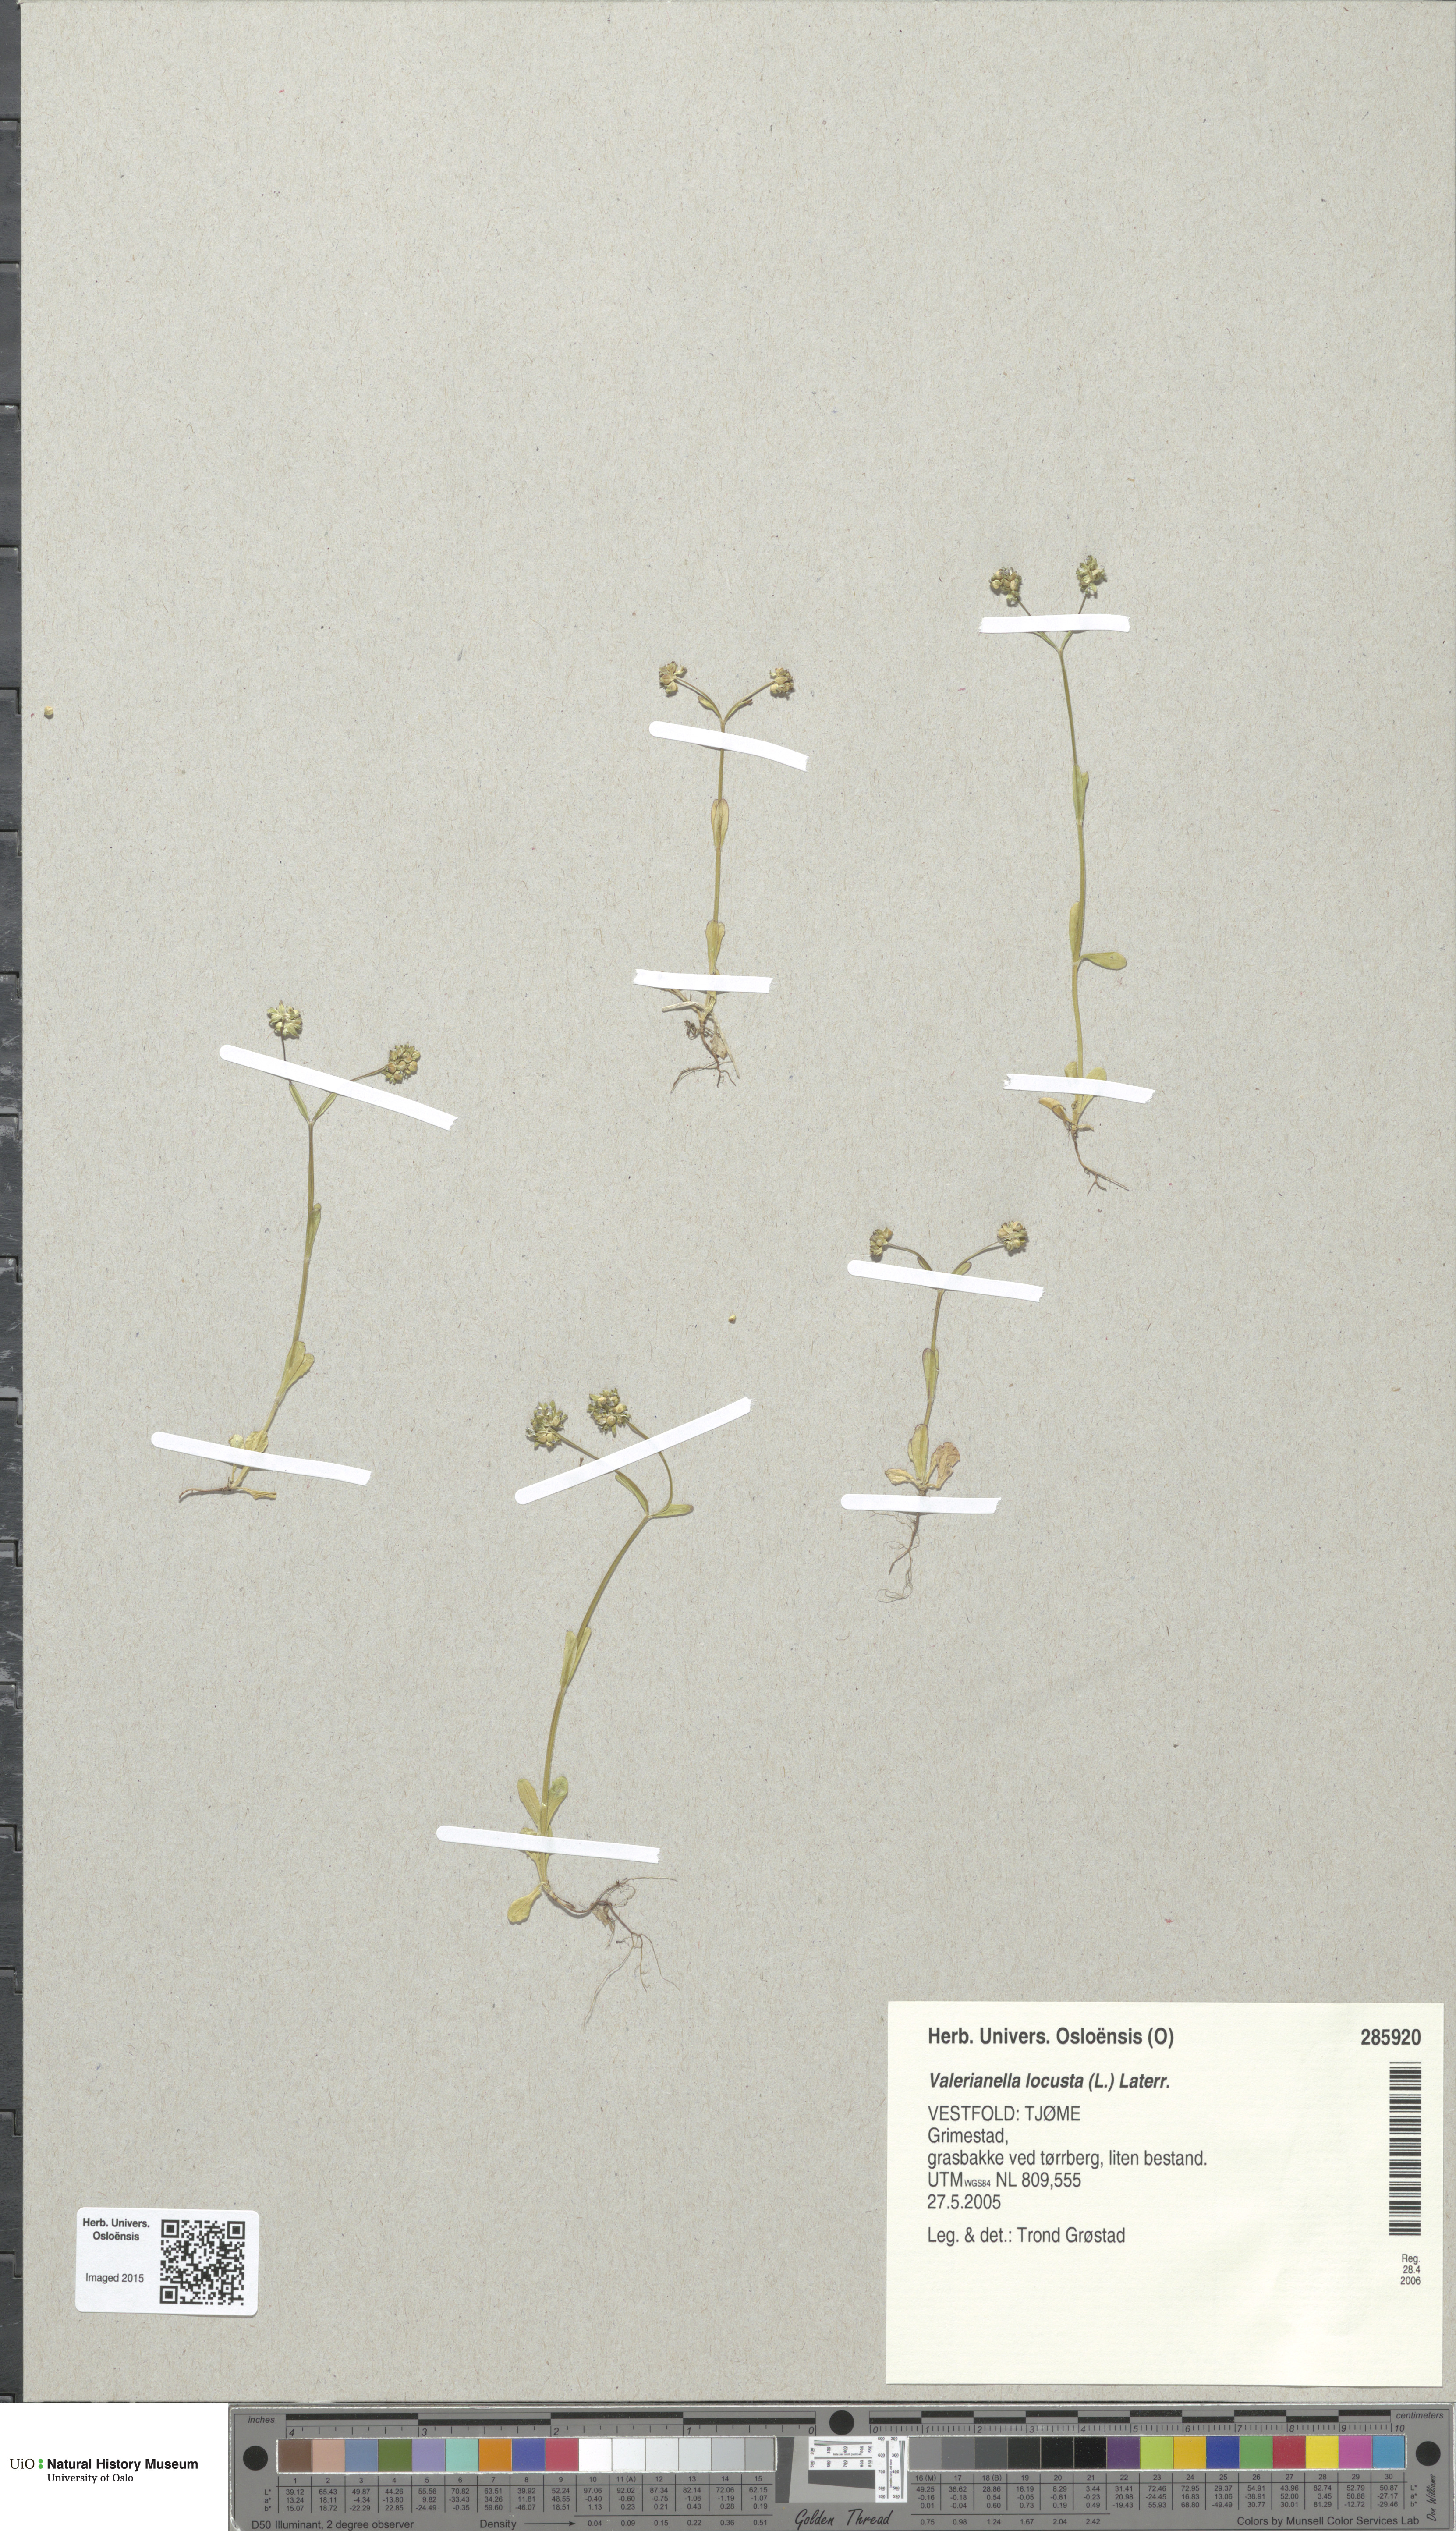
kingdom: Plantae
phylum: Tracheophyta
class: Magnoliopsida
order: Dipsacales
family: Caprifoliaceae
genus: Valerianella
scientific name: Valerianella locusta
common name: Common cornsalad
